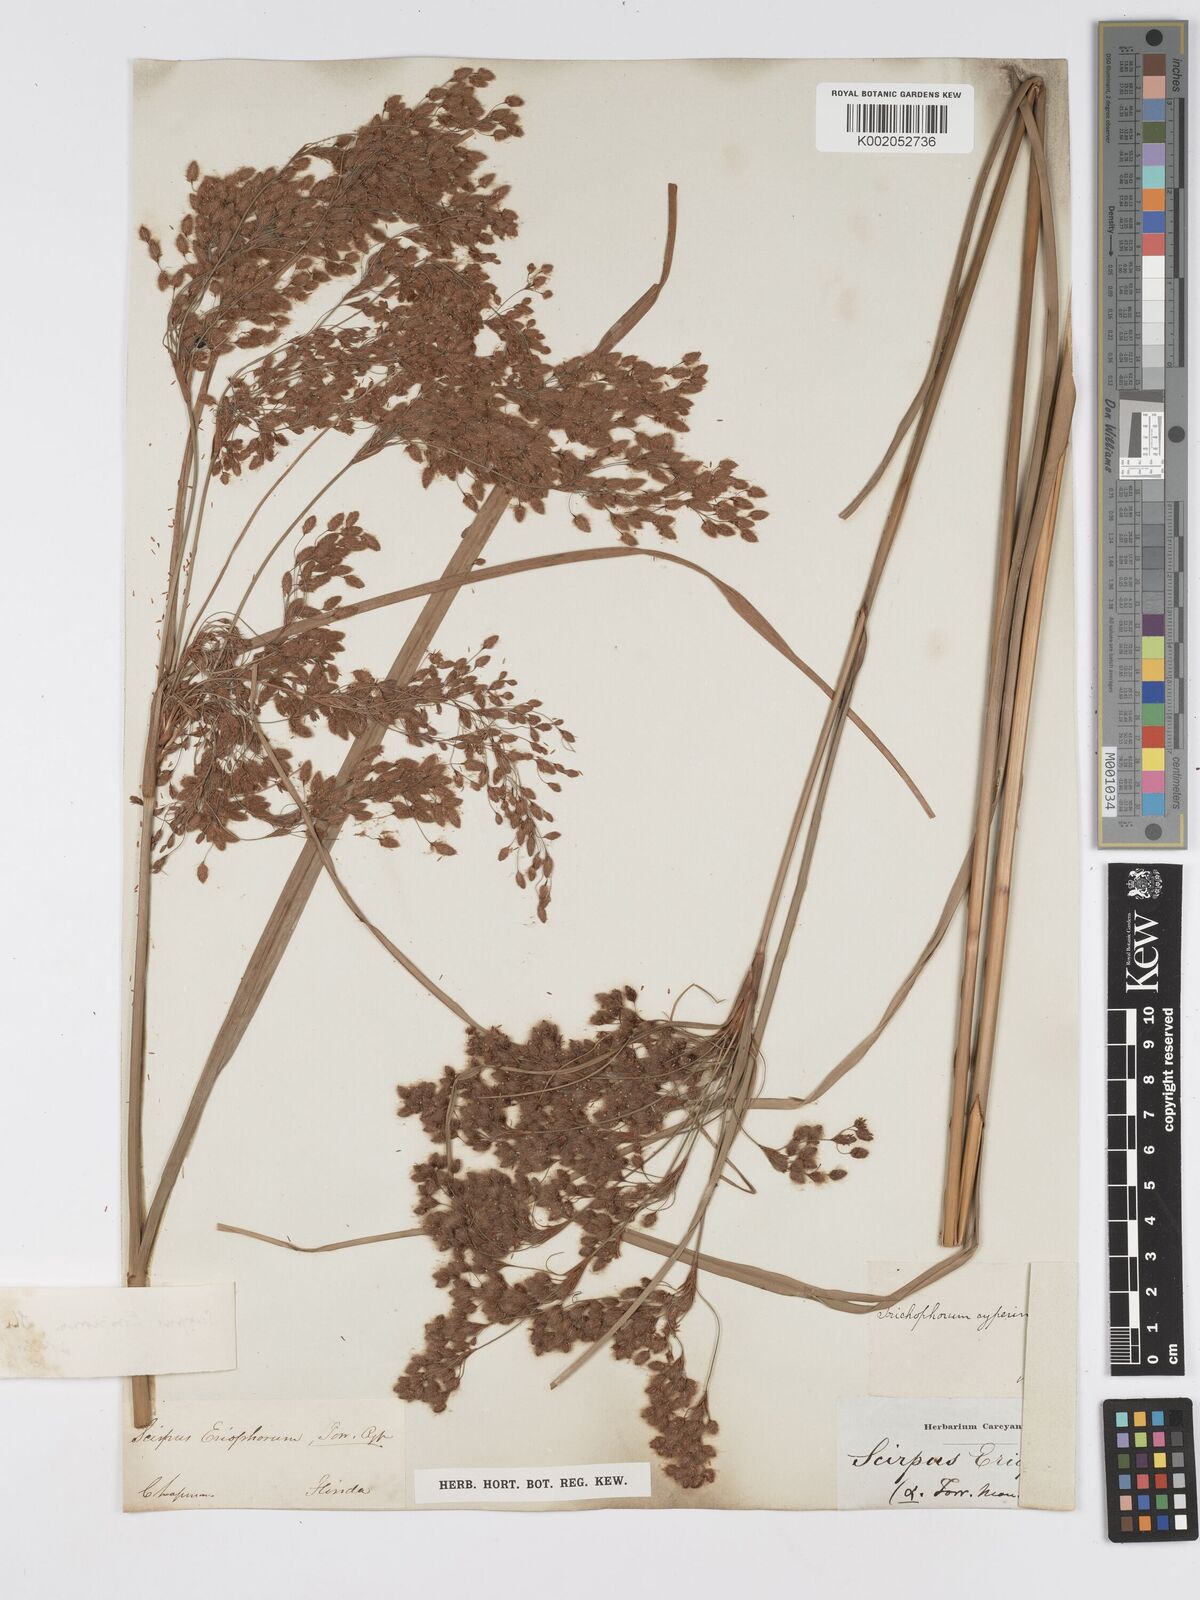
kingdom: Plantae
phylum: Tracheophyta
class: Liliopsida
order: Poales
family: Cyperaceae
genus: Scirpus
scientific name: Scirpus cyperinus
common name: Black-sheathed bulrush
